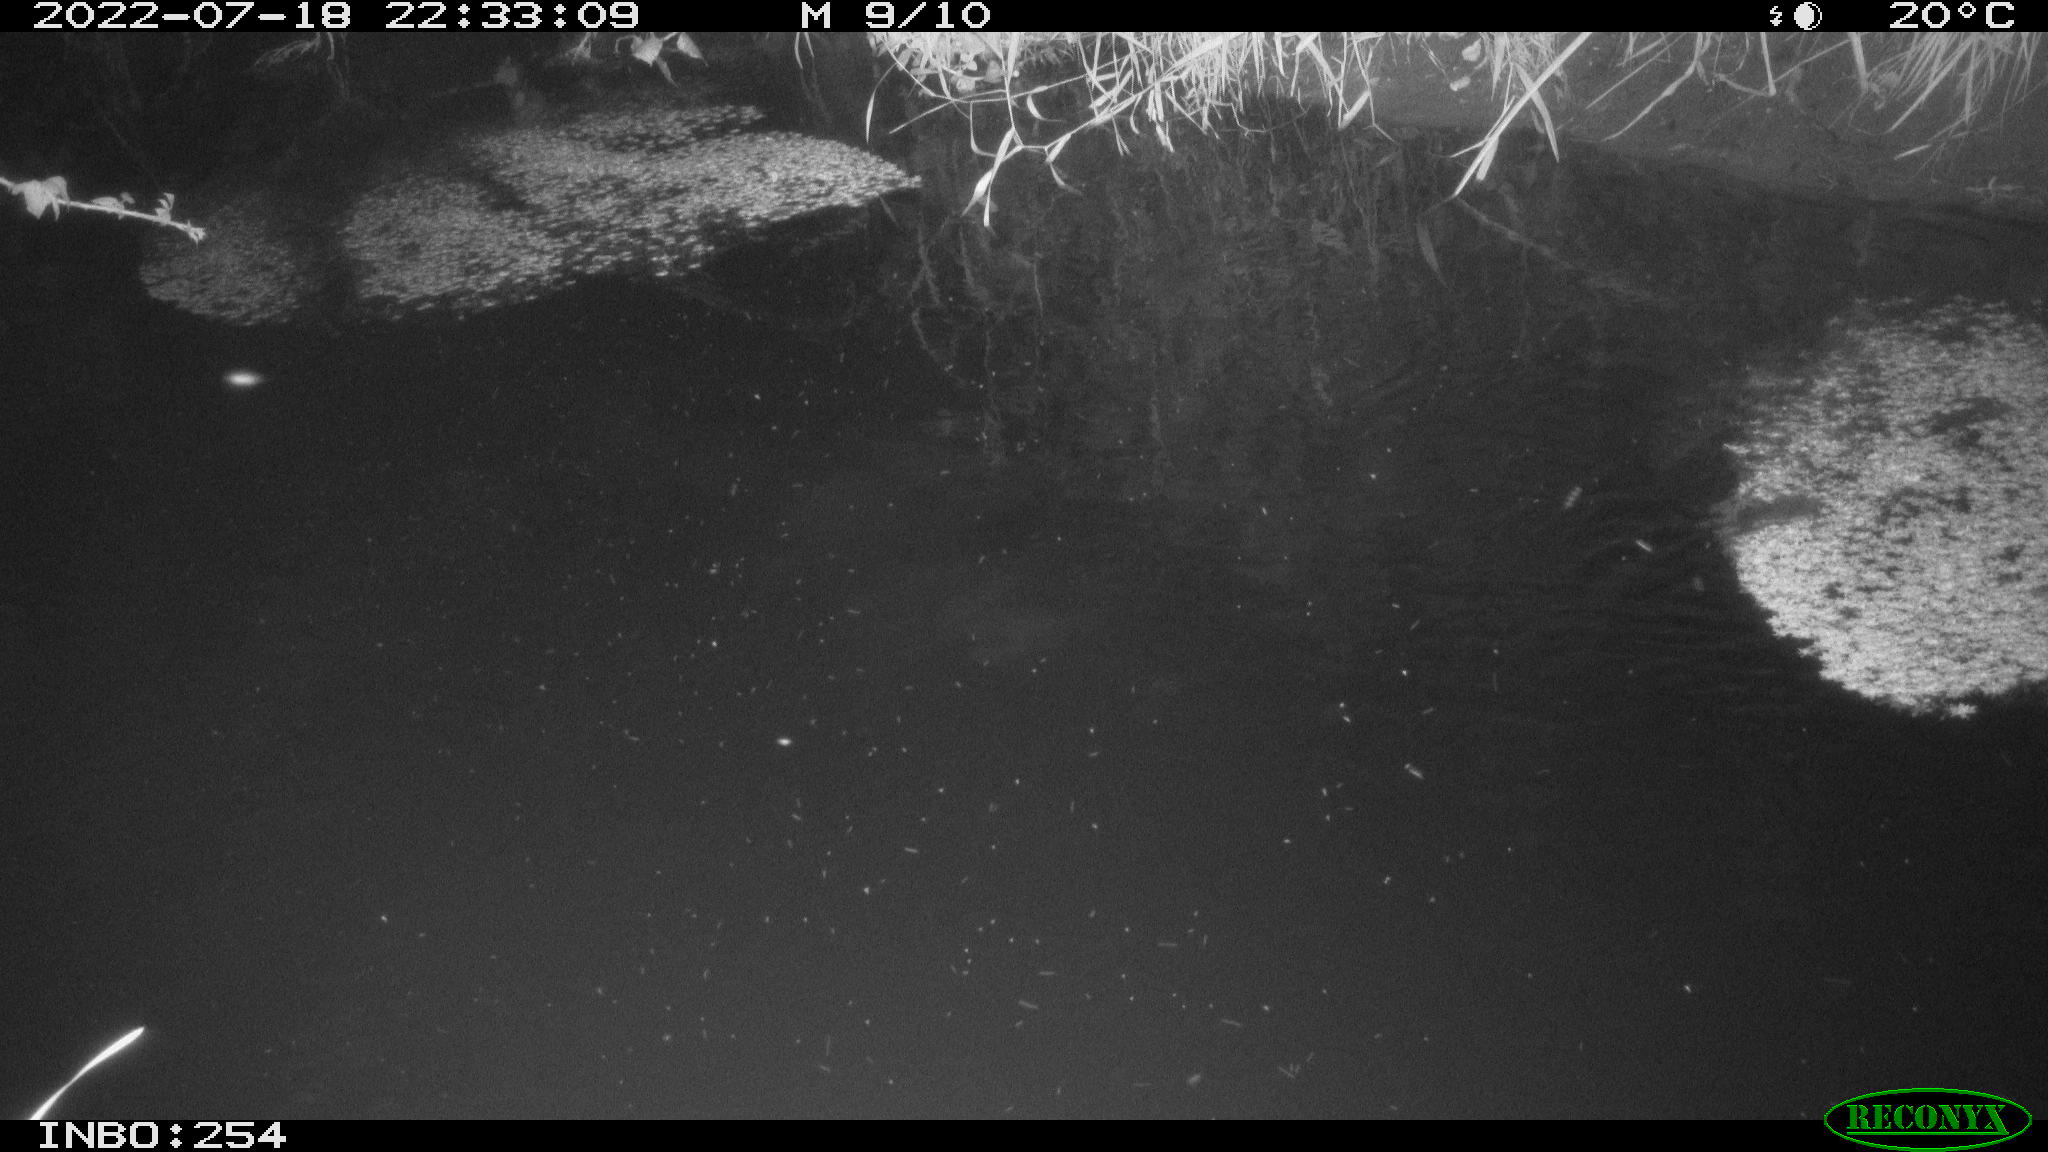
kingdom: Animalia
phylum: Chordata
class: Aves
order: Anseriformes
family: Anatidae
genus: Anas
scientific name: Anas platyrhynchos
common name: Mallard
